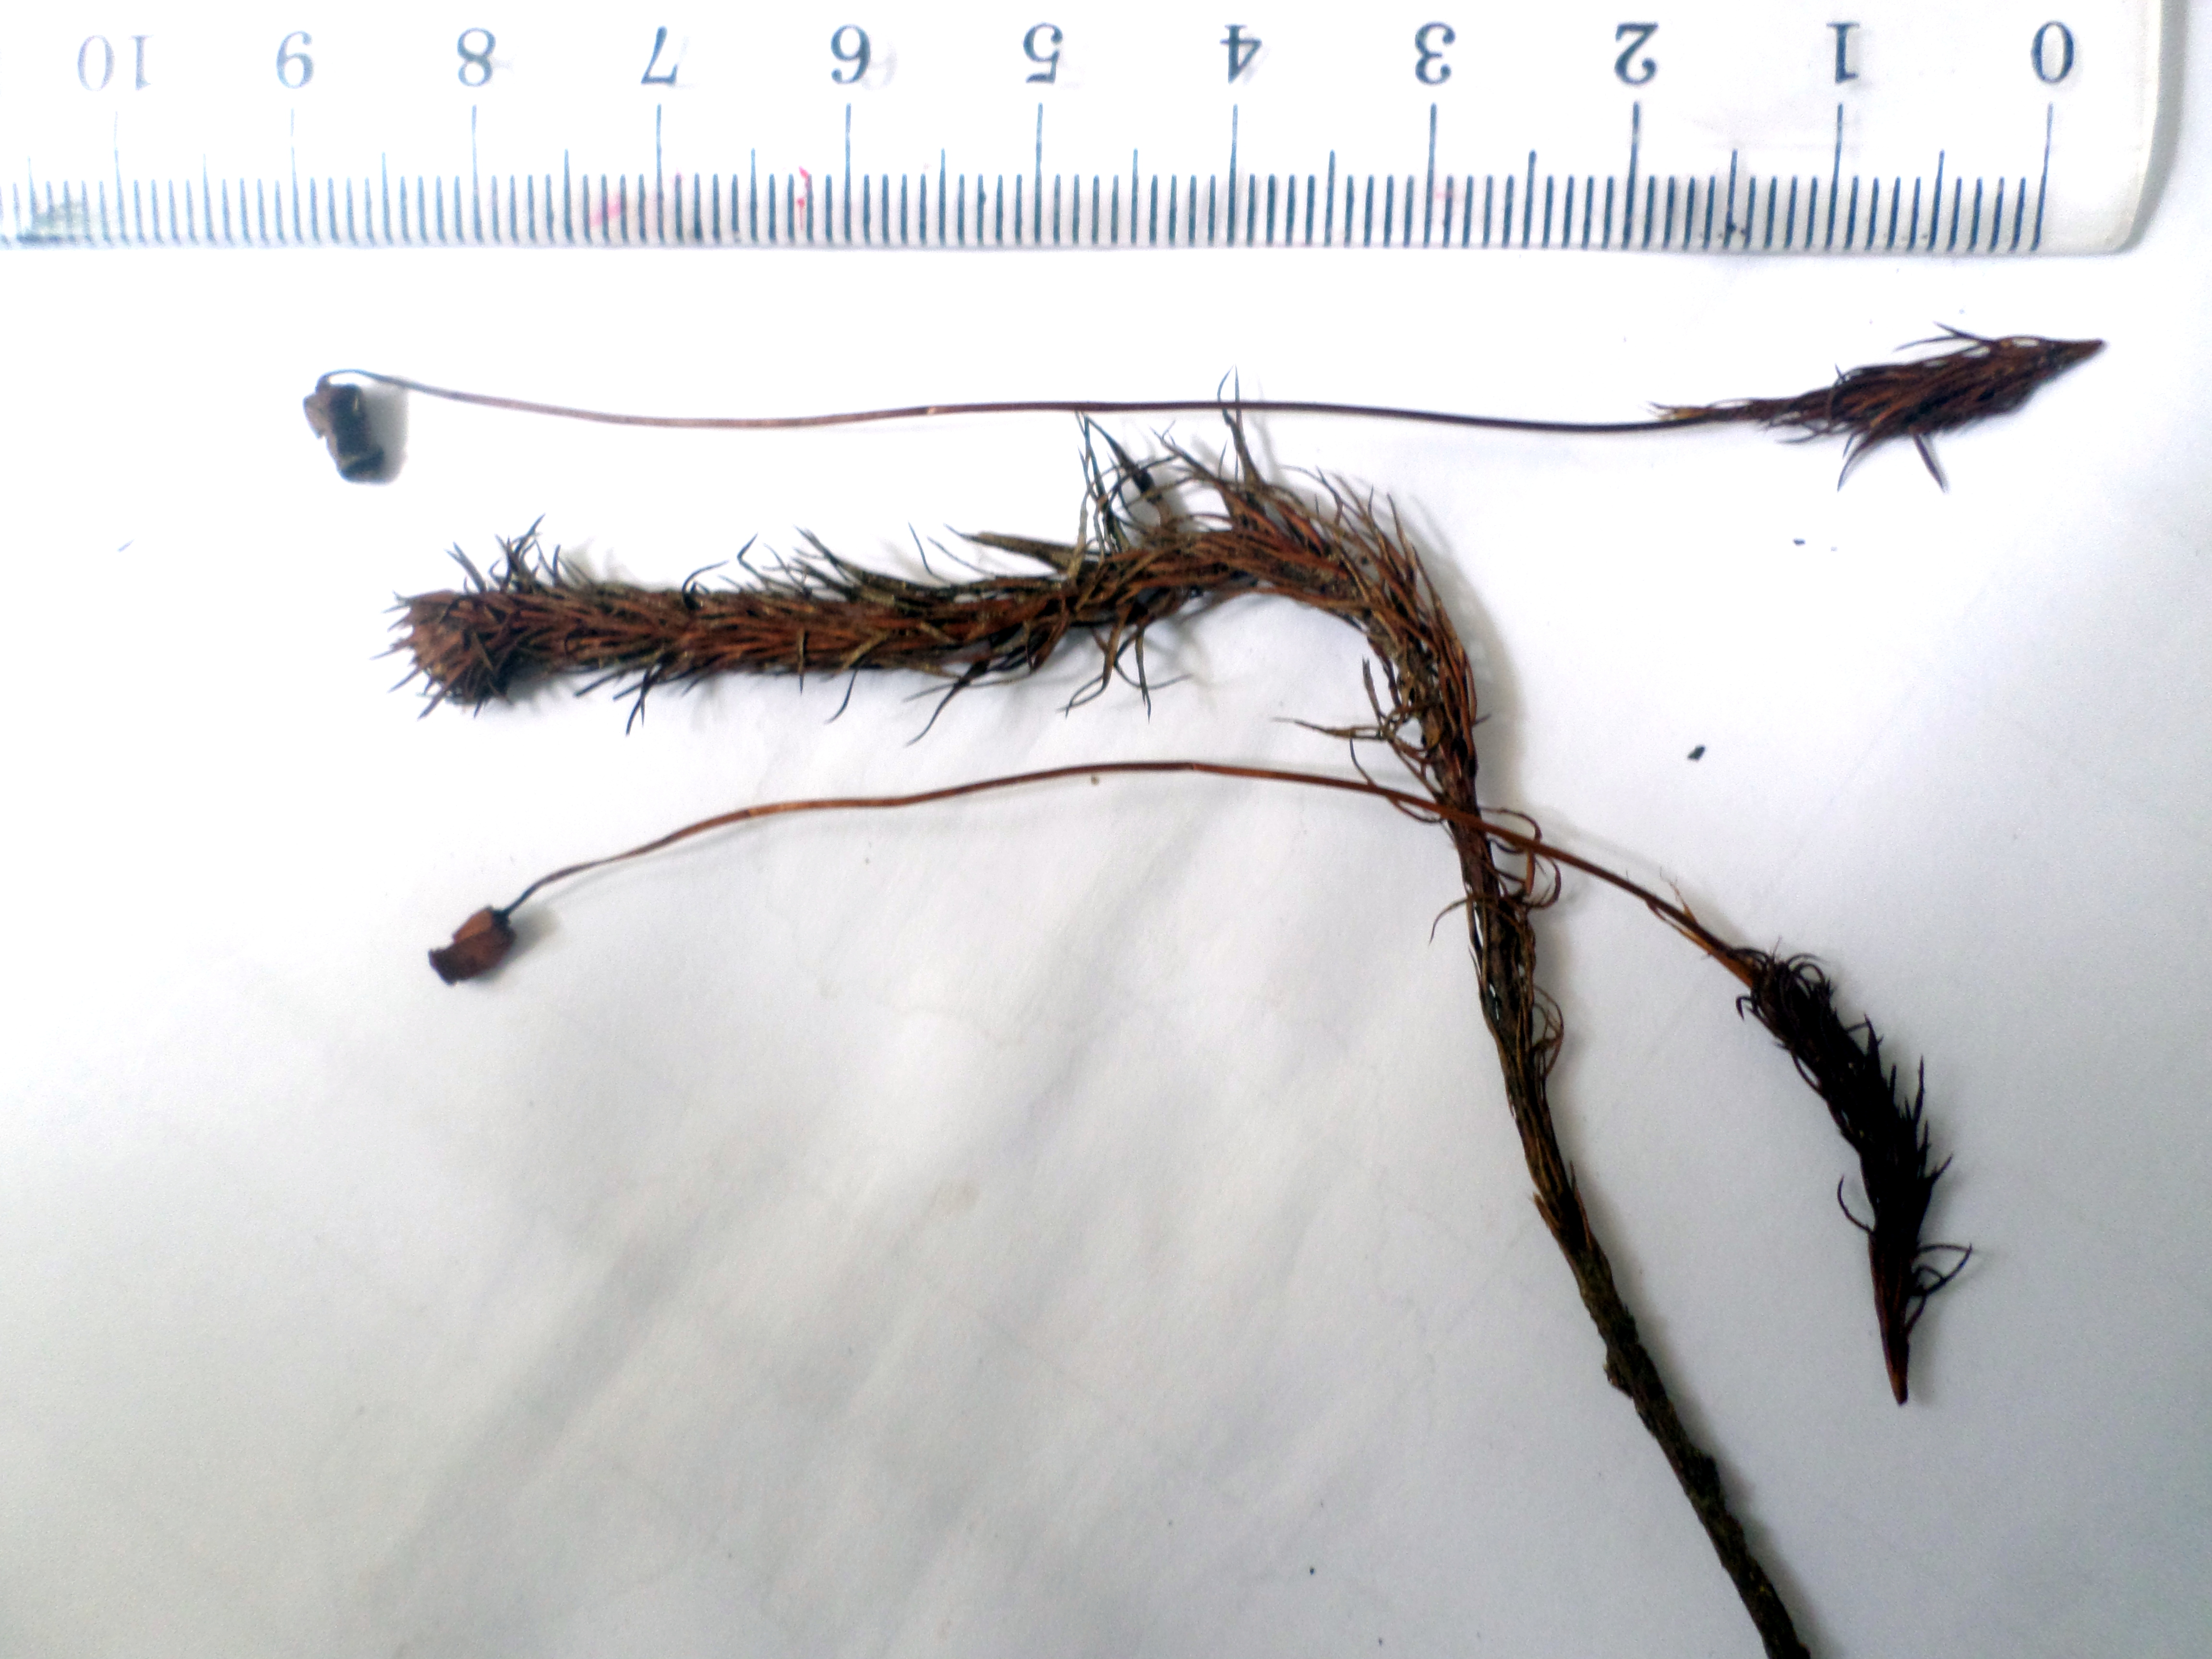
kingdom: Plantae
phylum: Bryophyta
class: Polytrichopsida
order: Polytrichales
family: Polytrichaceae
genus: Polytrichum
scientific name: Polytrichum subpilosum
